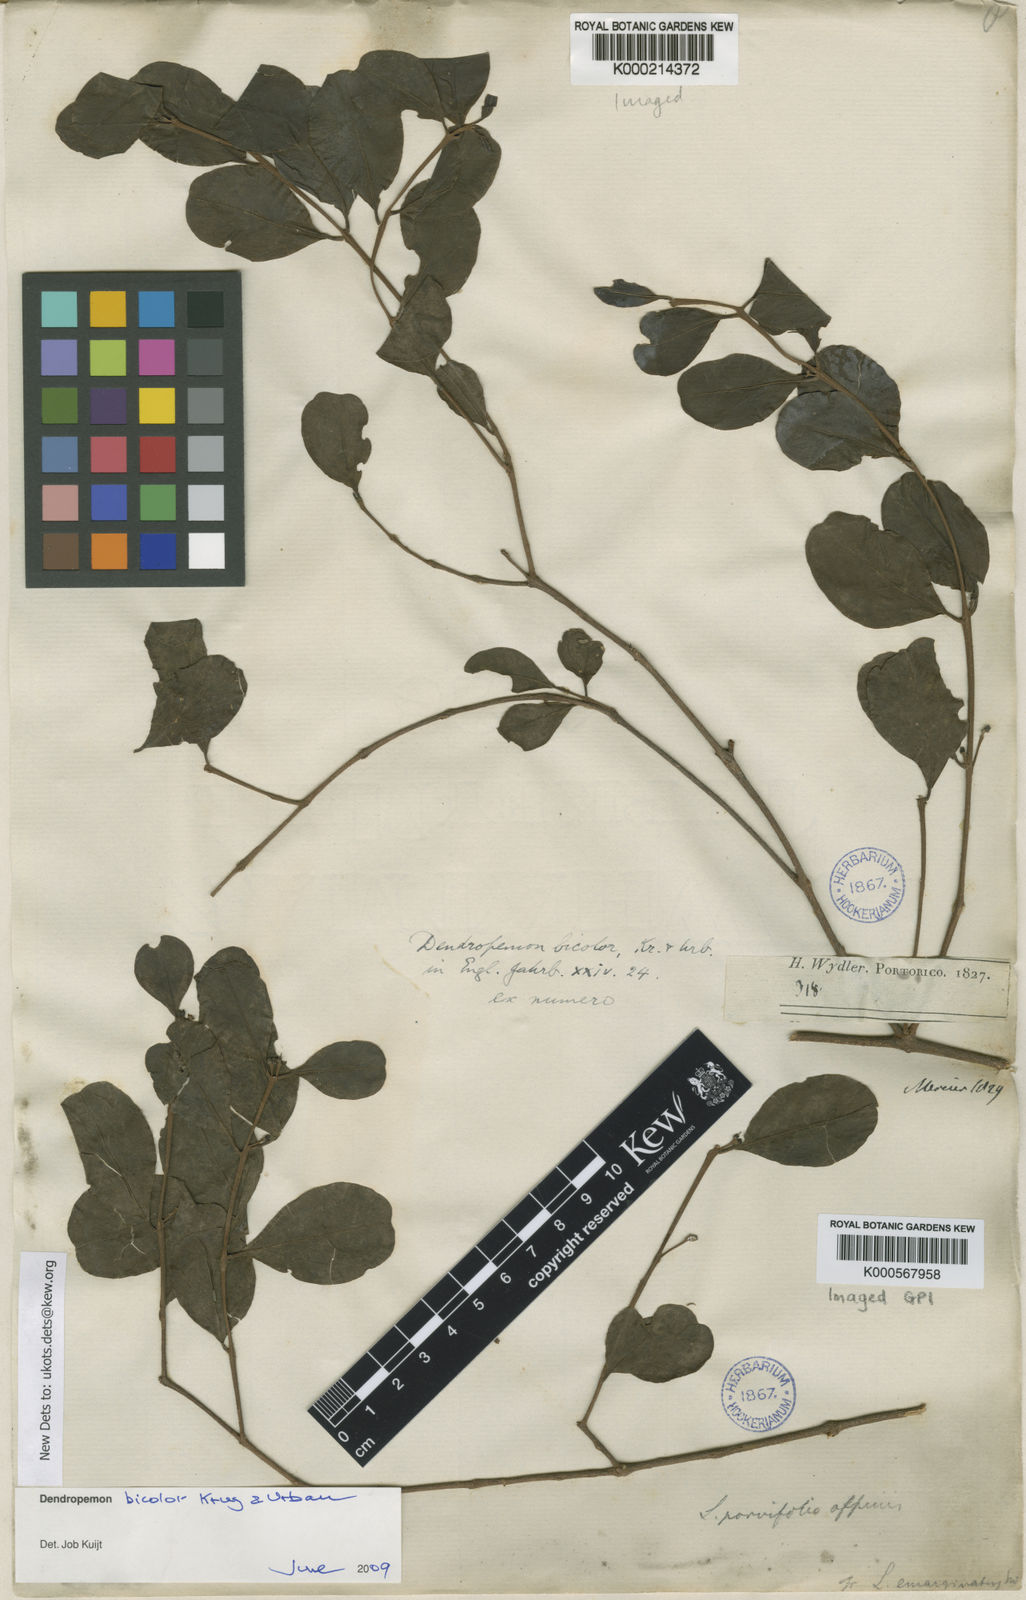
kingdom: Plantae
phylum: Tracheophyta
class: Magnoliopsida
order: Santalales
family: Loranthaceae
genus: Dendropemon
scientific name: Dendropemon bicolor
